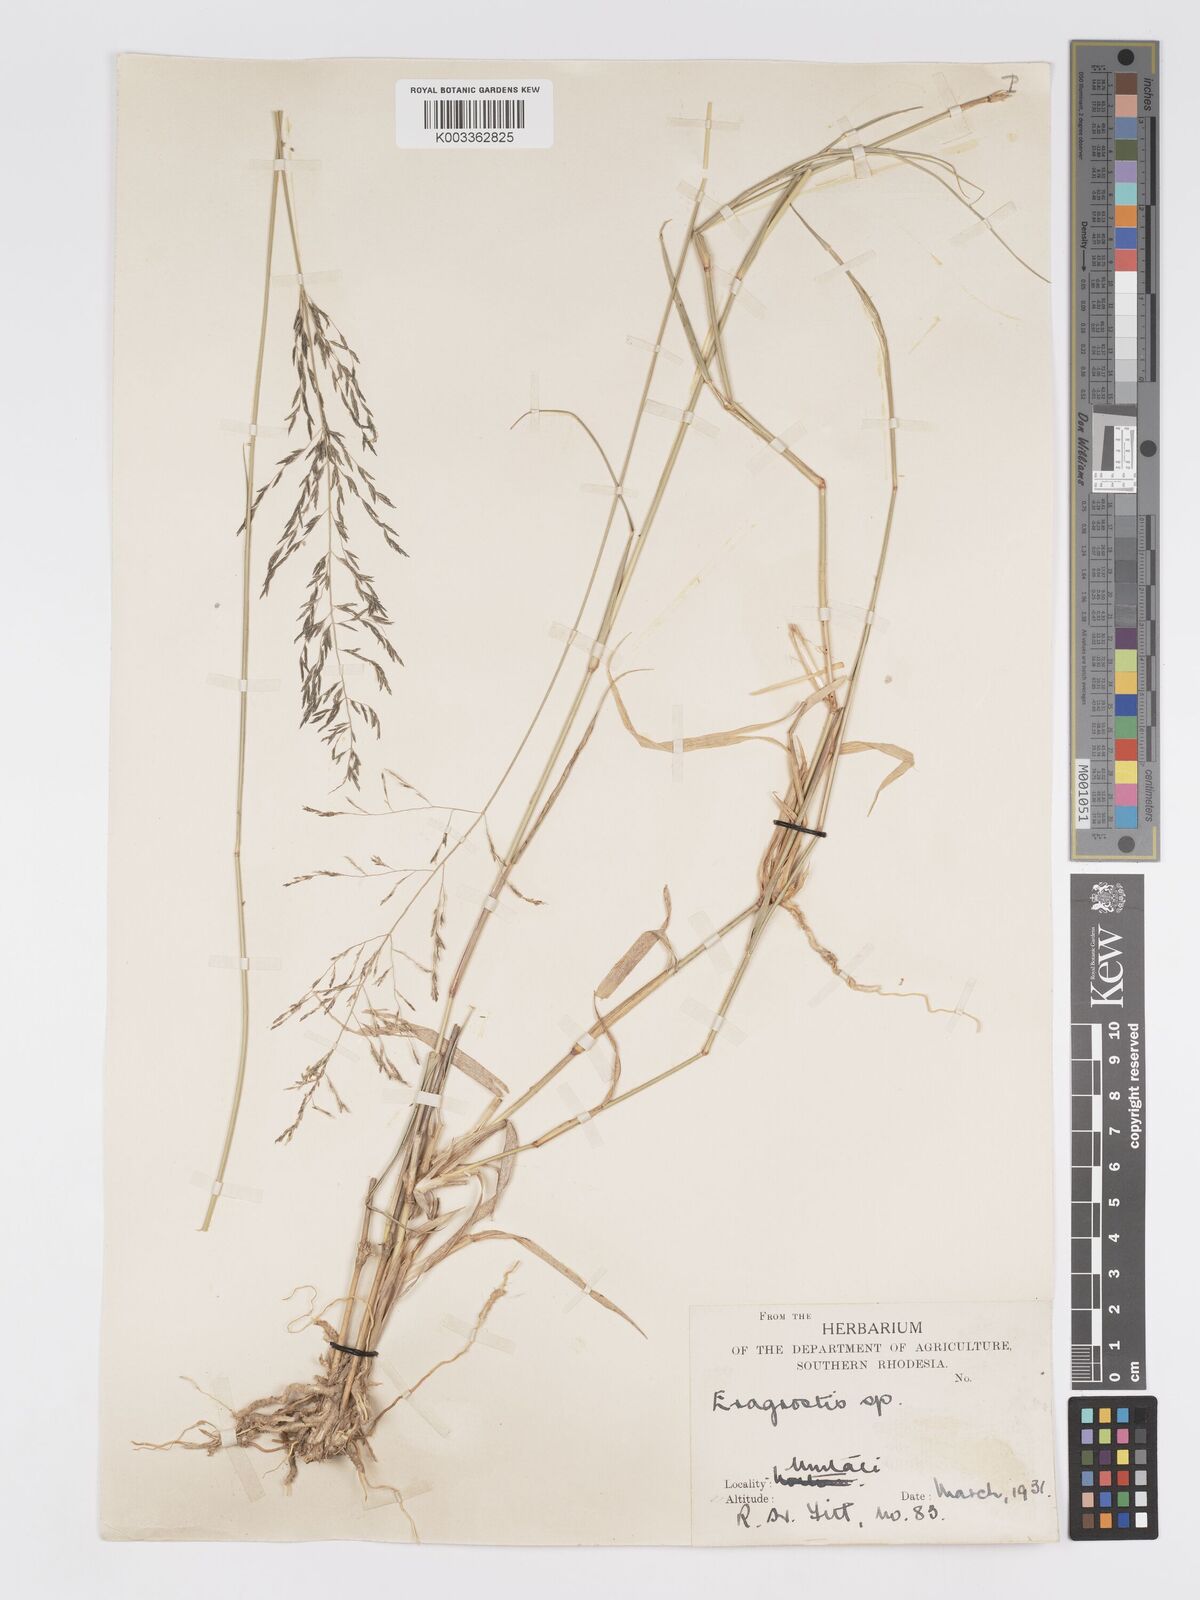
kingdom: Plantae
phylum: Tracheophyta
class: Liliopsida
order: Poales
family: Poaceae
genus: Eragrostis
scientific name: Eragrostis cylindriflora
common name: Cylinderflower lovegrass
